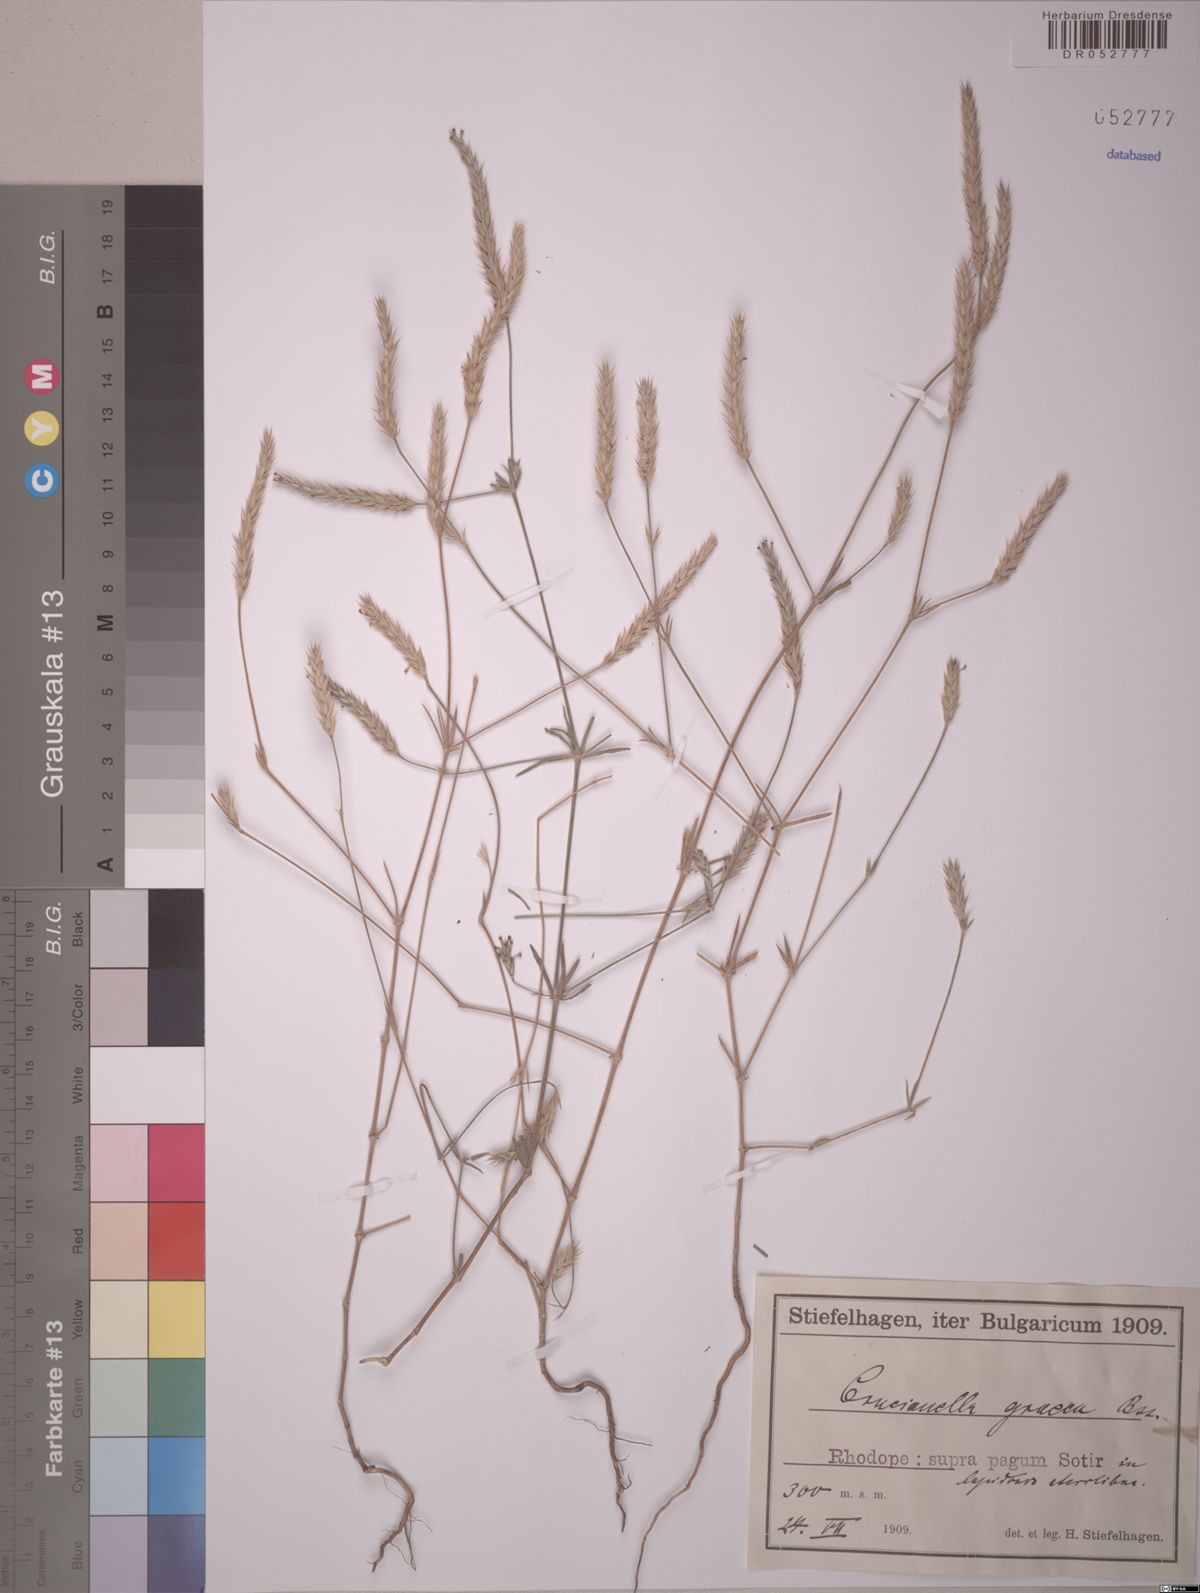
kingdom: Plantae
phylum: Tracheophyta
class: Magnoliopsida
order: Gentianales
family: Rubiaceae
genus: Crucianella
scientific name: Crucianella graeca
